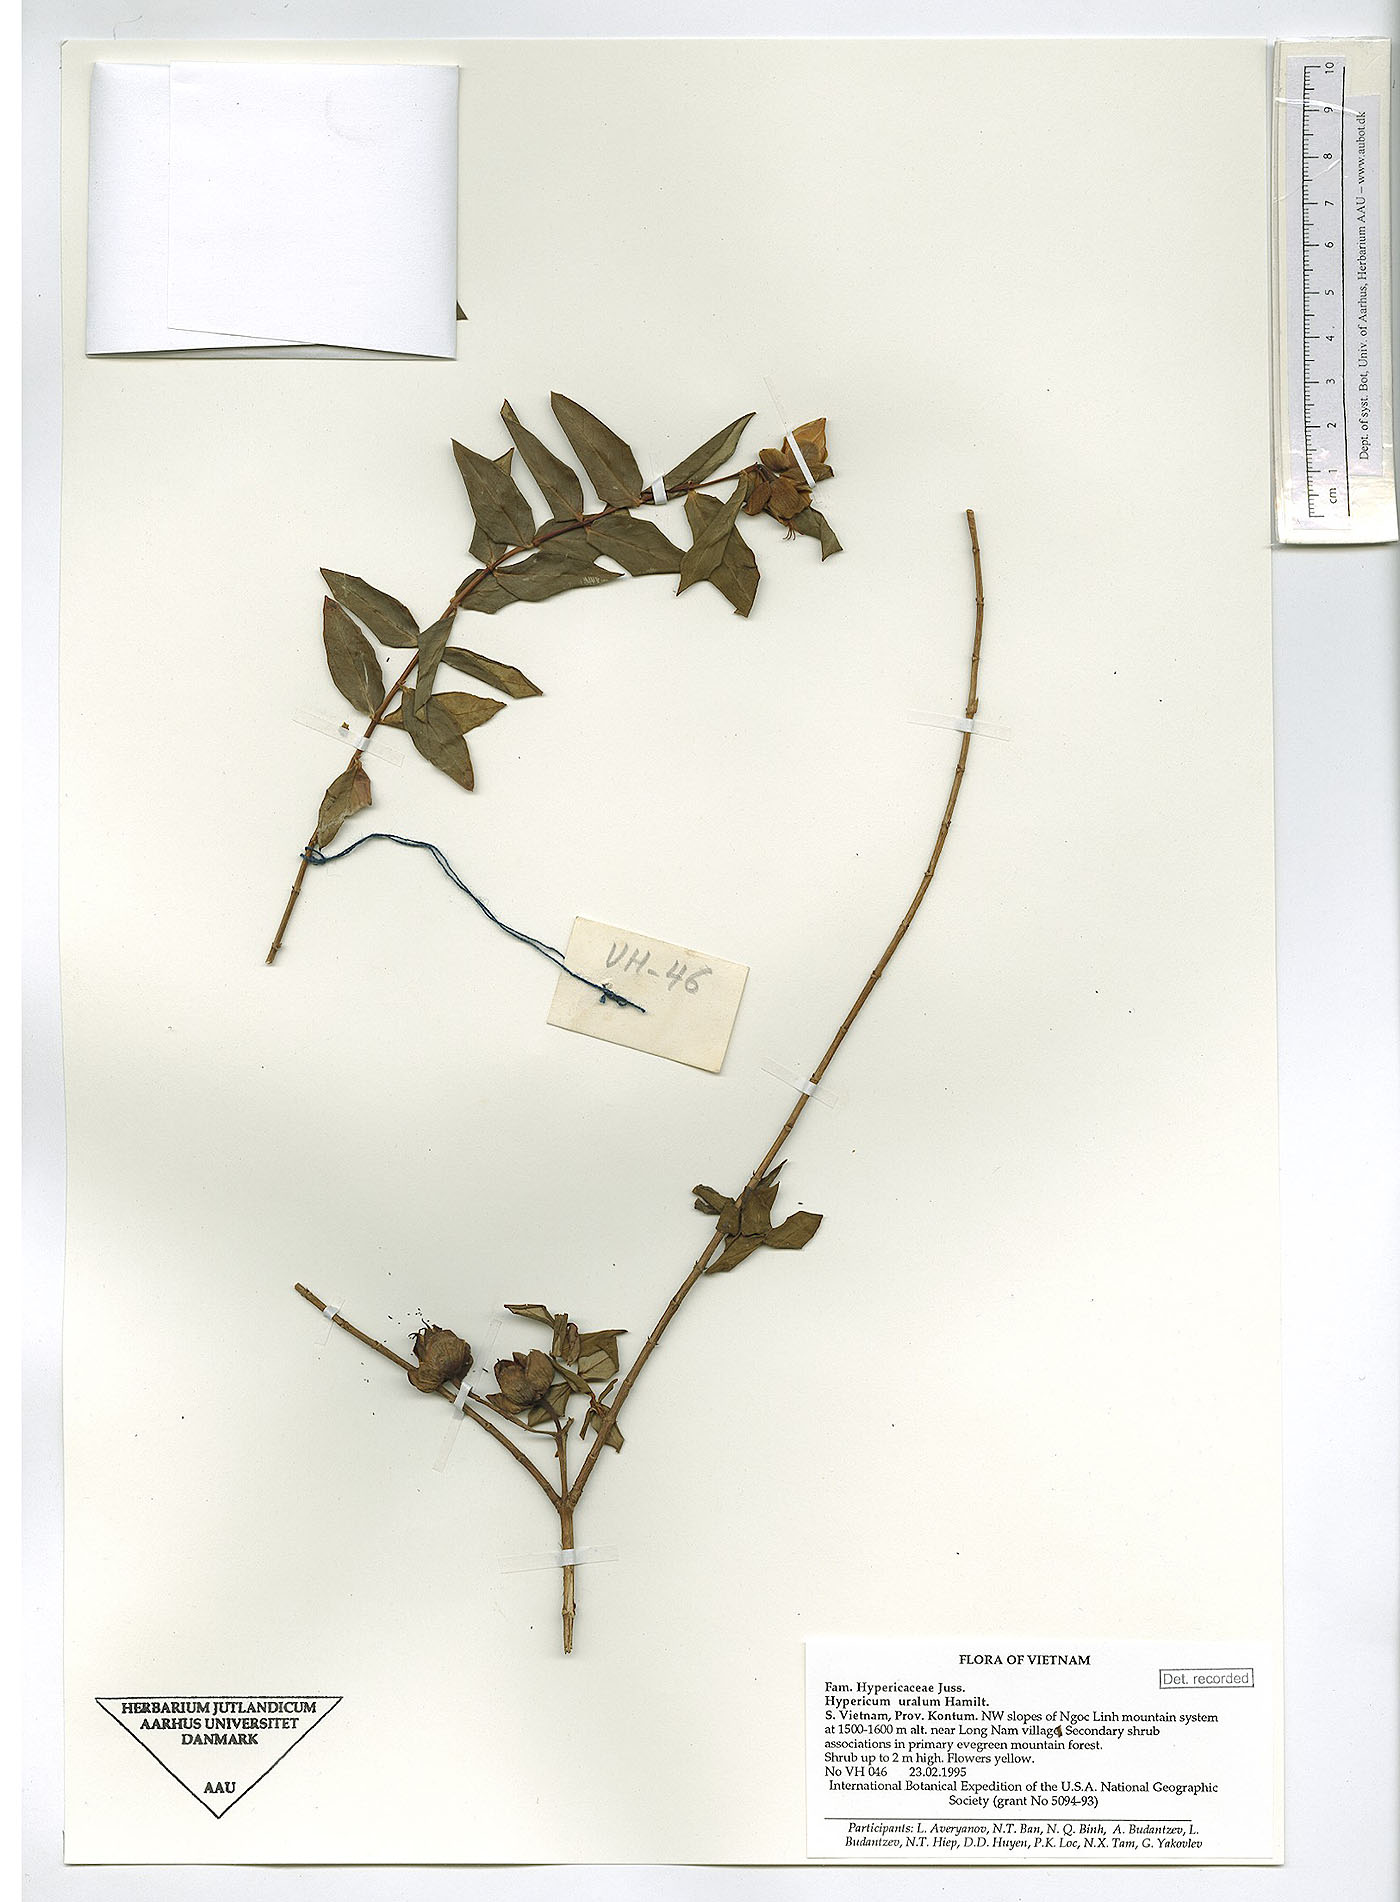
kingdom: Plantae
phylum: Tracheophyta
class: Magnoliopsida
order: Malpighiales
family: Hypericaceae
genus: Hypericum
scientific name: Hypericum uralum
